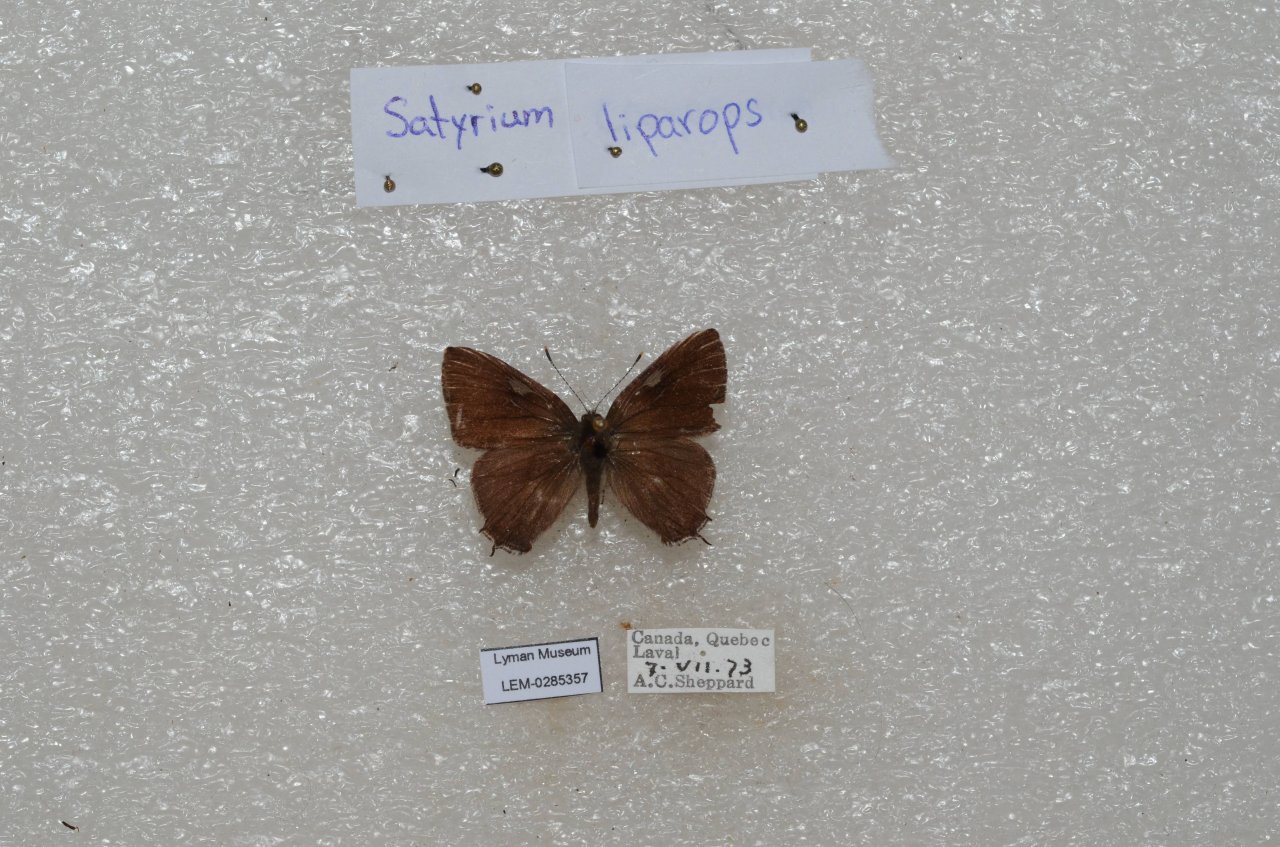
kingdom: Animalia
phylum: Arthropoda
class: Insecta
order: Lepidoptera
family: Lycaenidae
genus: Satyrium
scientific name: Satyrium liparops
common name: Striped Hairstreak
